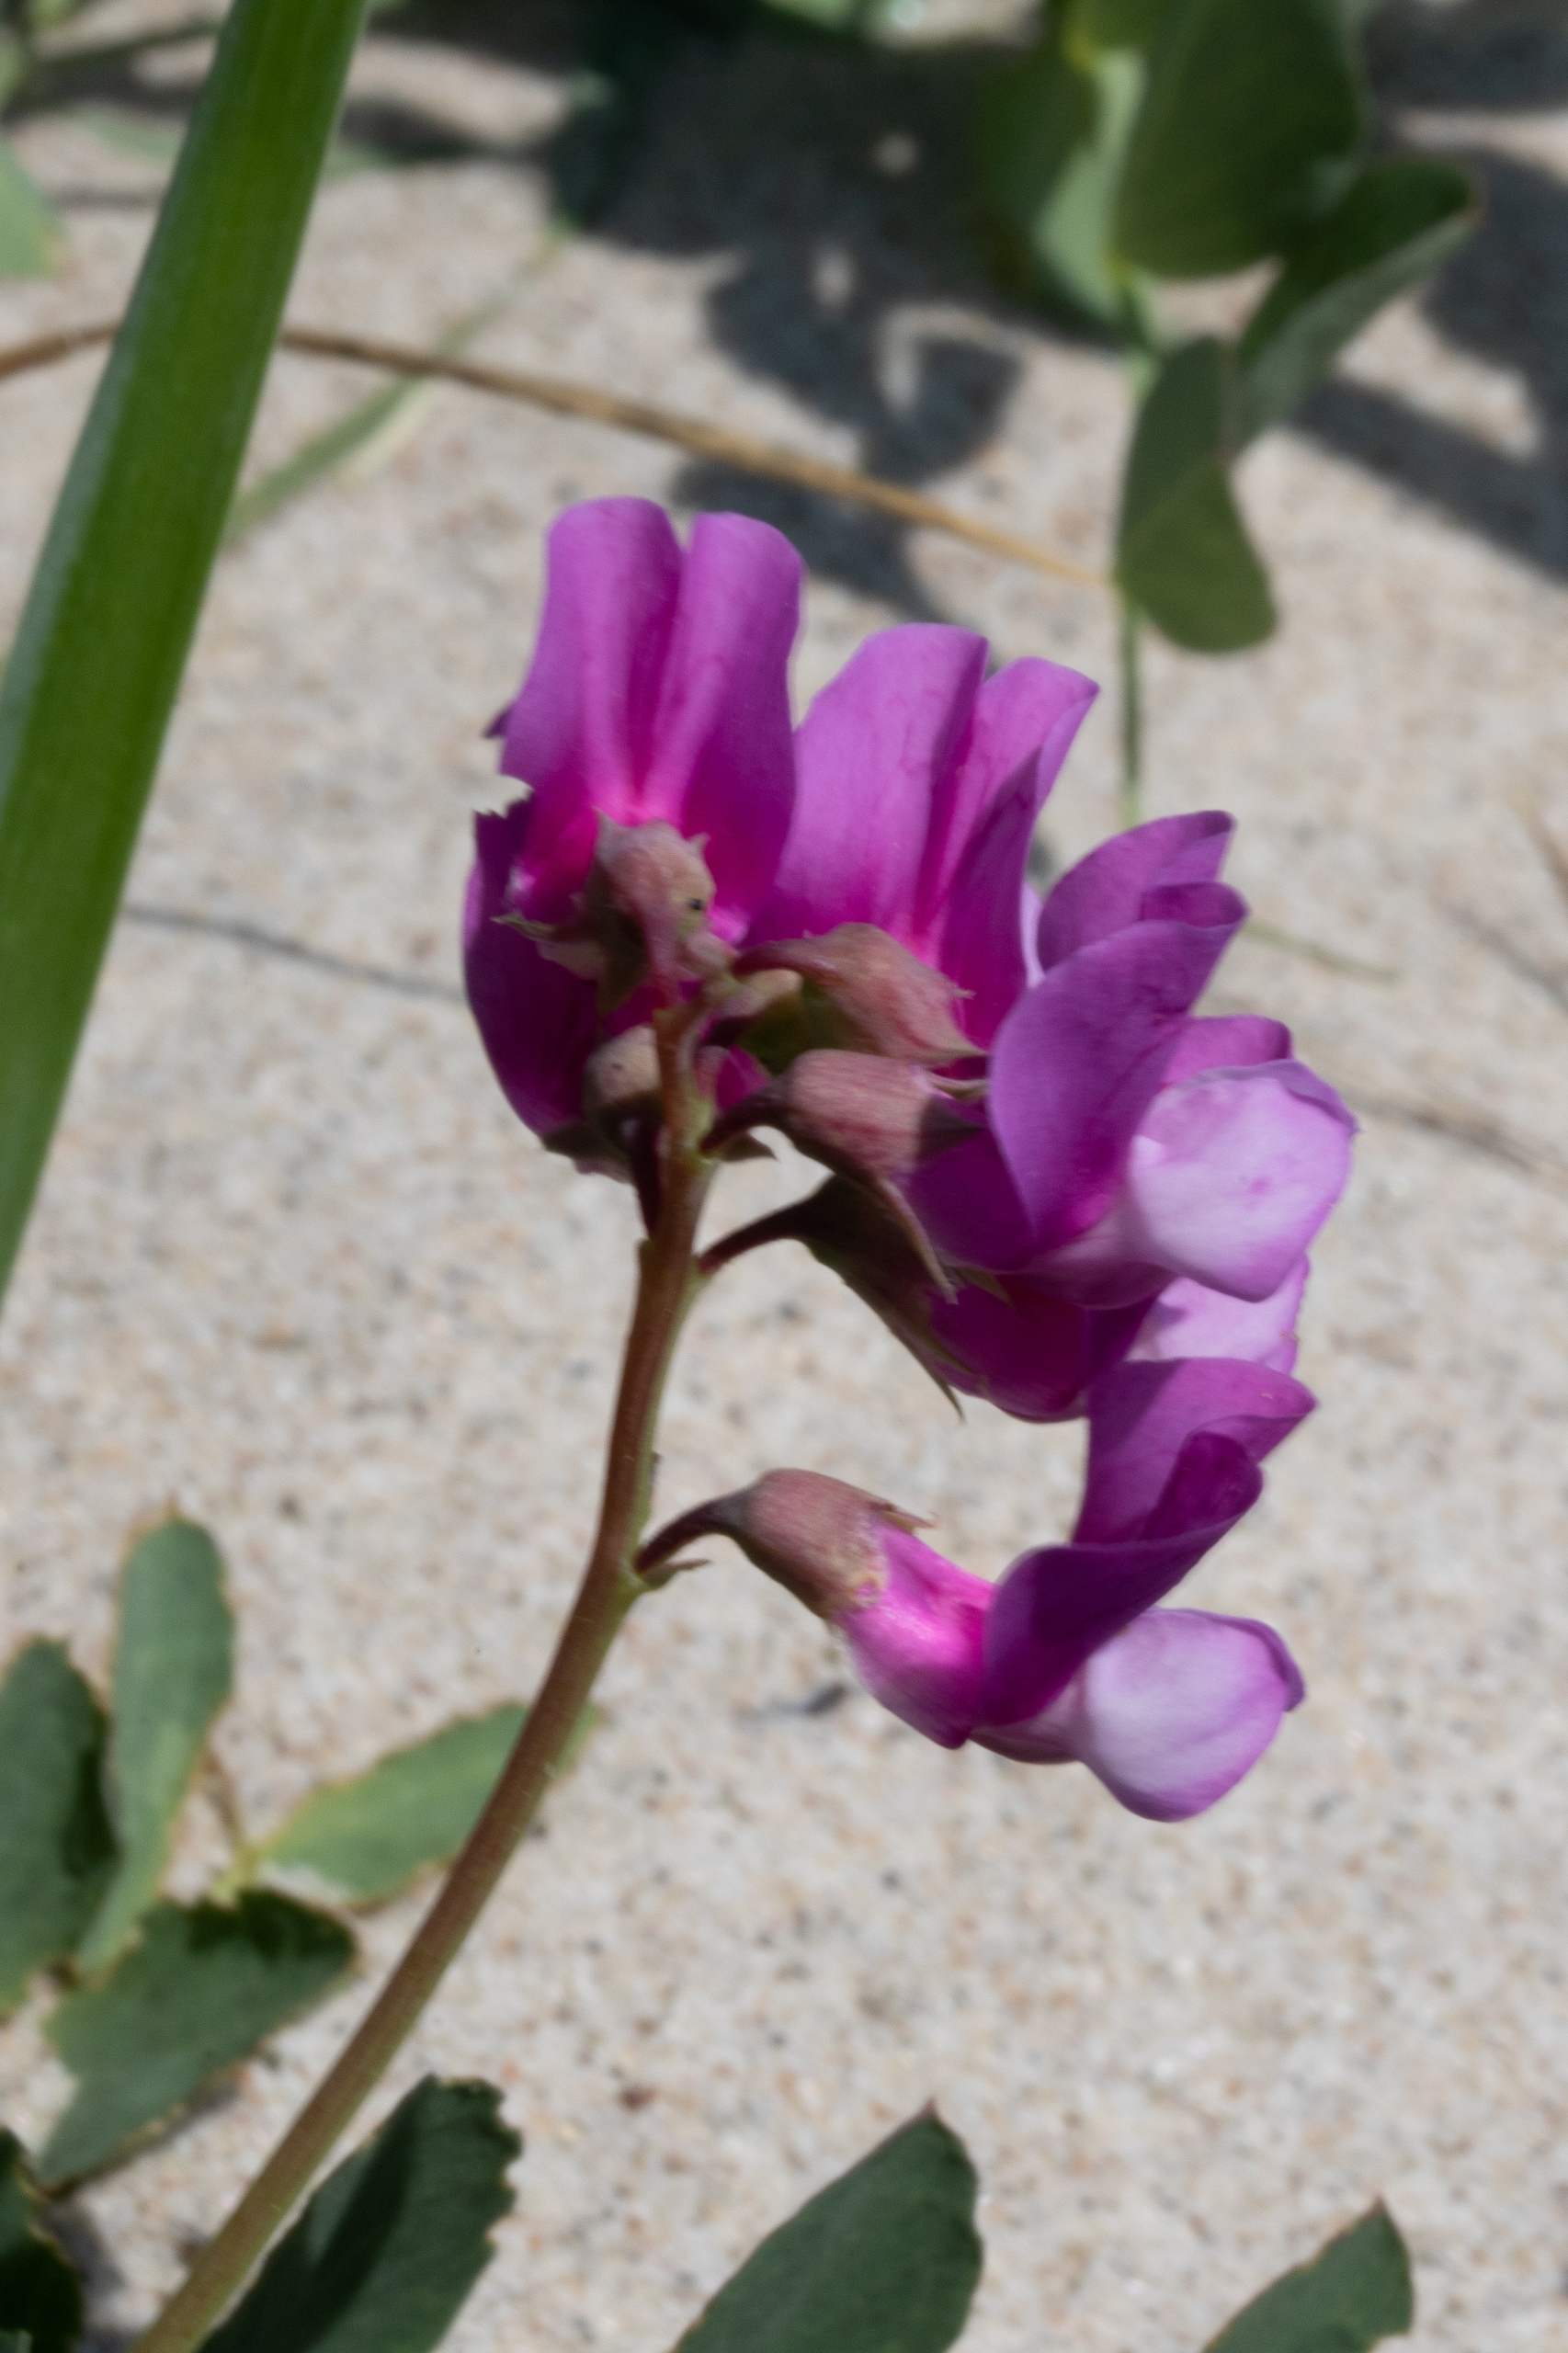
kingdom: Plantae
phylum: Tracheophyta
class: Magnoliopsida
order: Fabales
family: Fabaceae
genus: Lathyrus
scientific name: Lathyrus japonicus
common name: Strand-fladbælg
